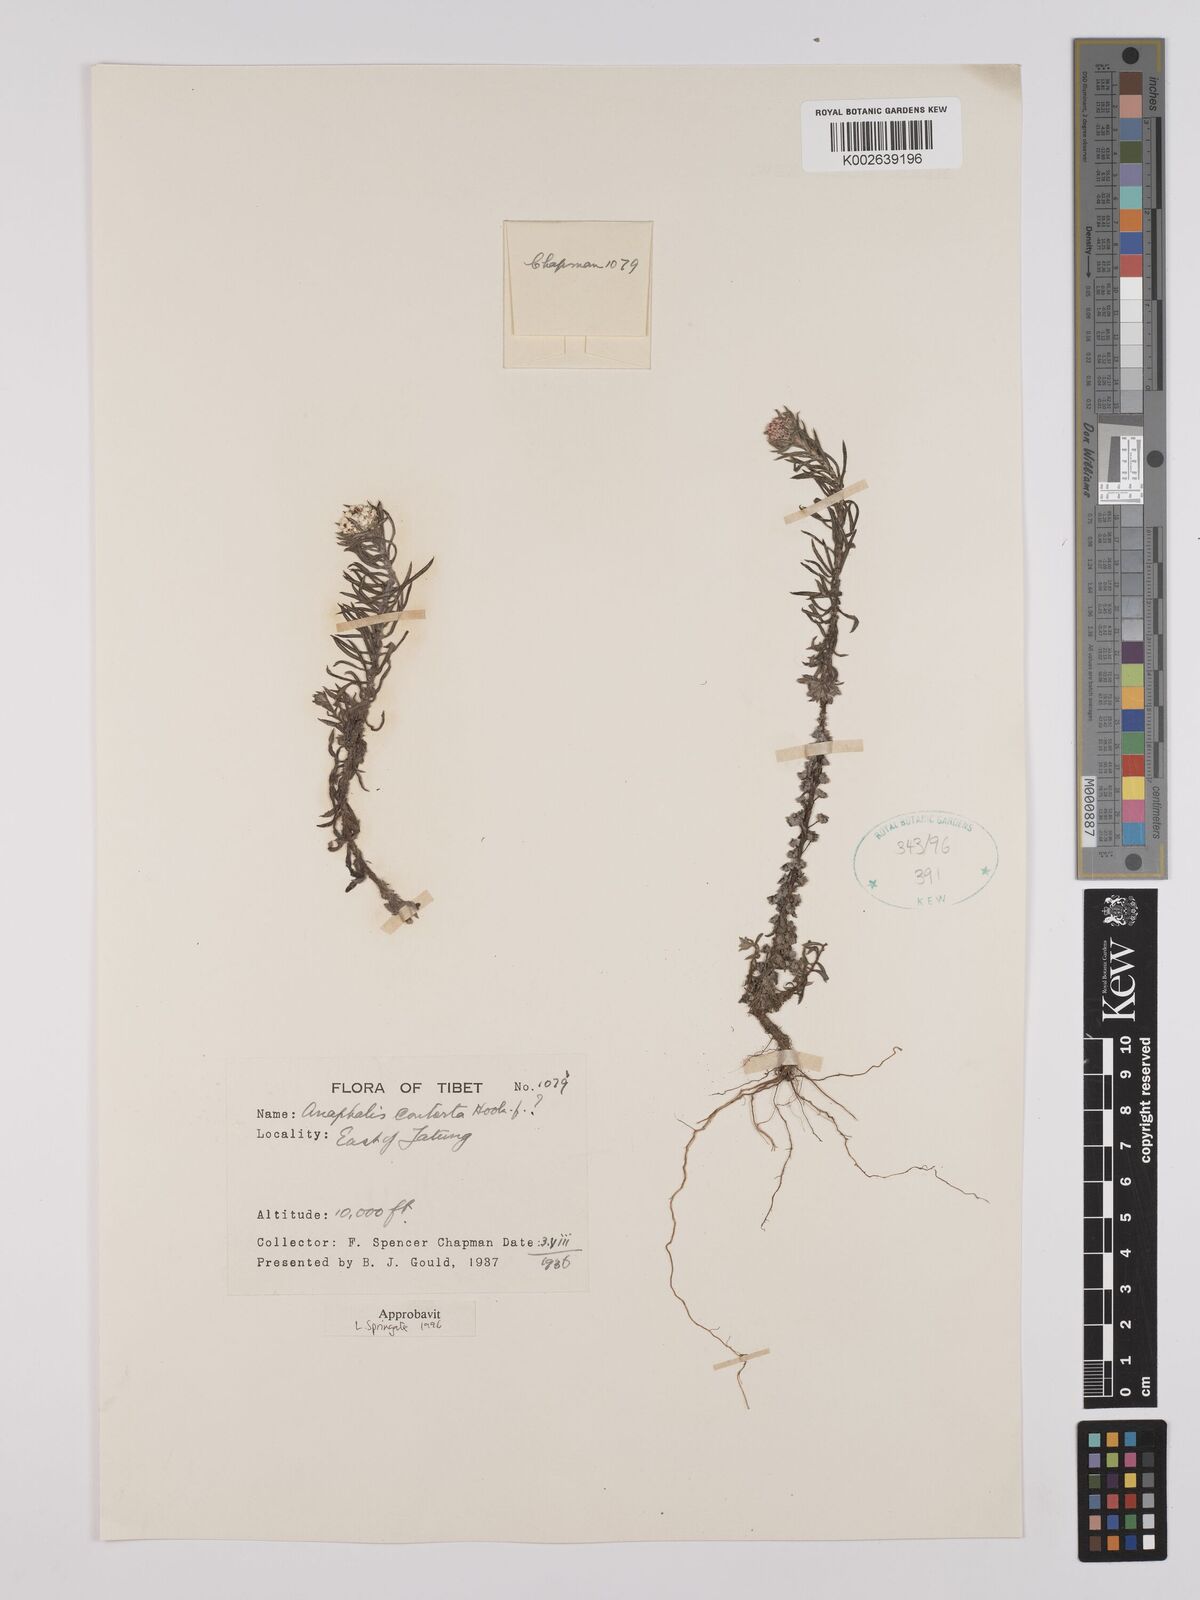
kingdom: Plantae
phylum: Tracheophyta
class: Magnoliopsida
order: Asterales
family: Asteraceae
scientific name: Asteraceae
